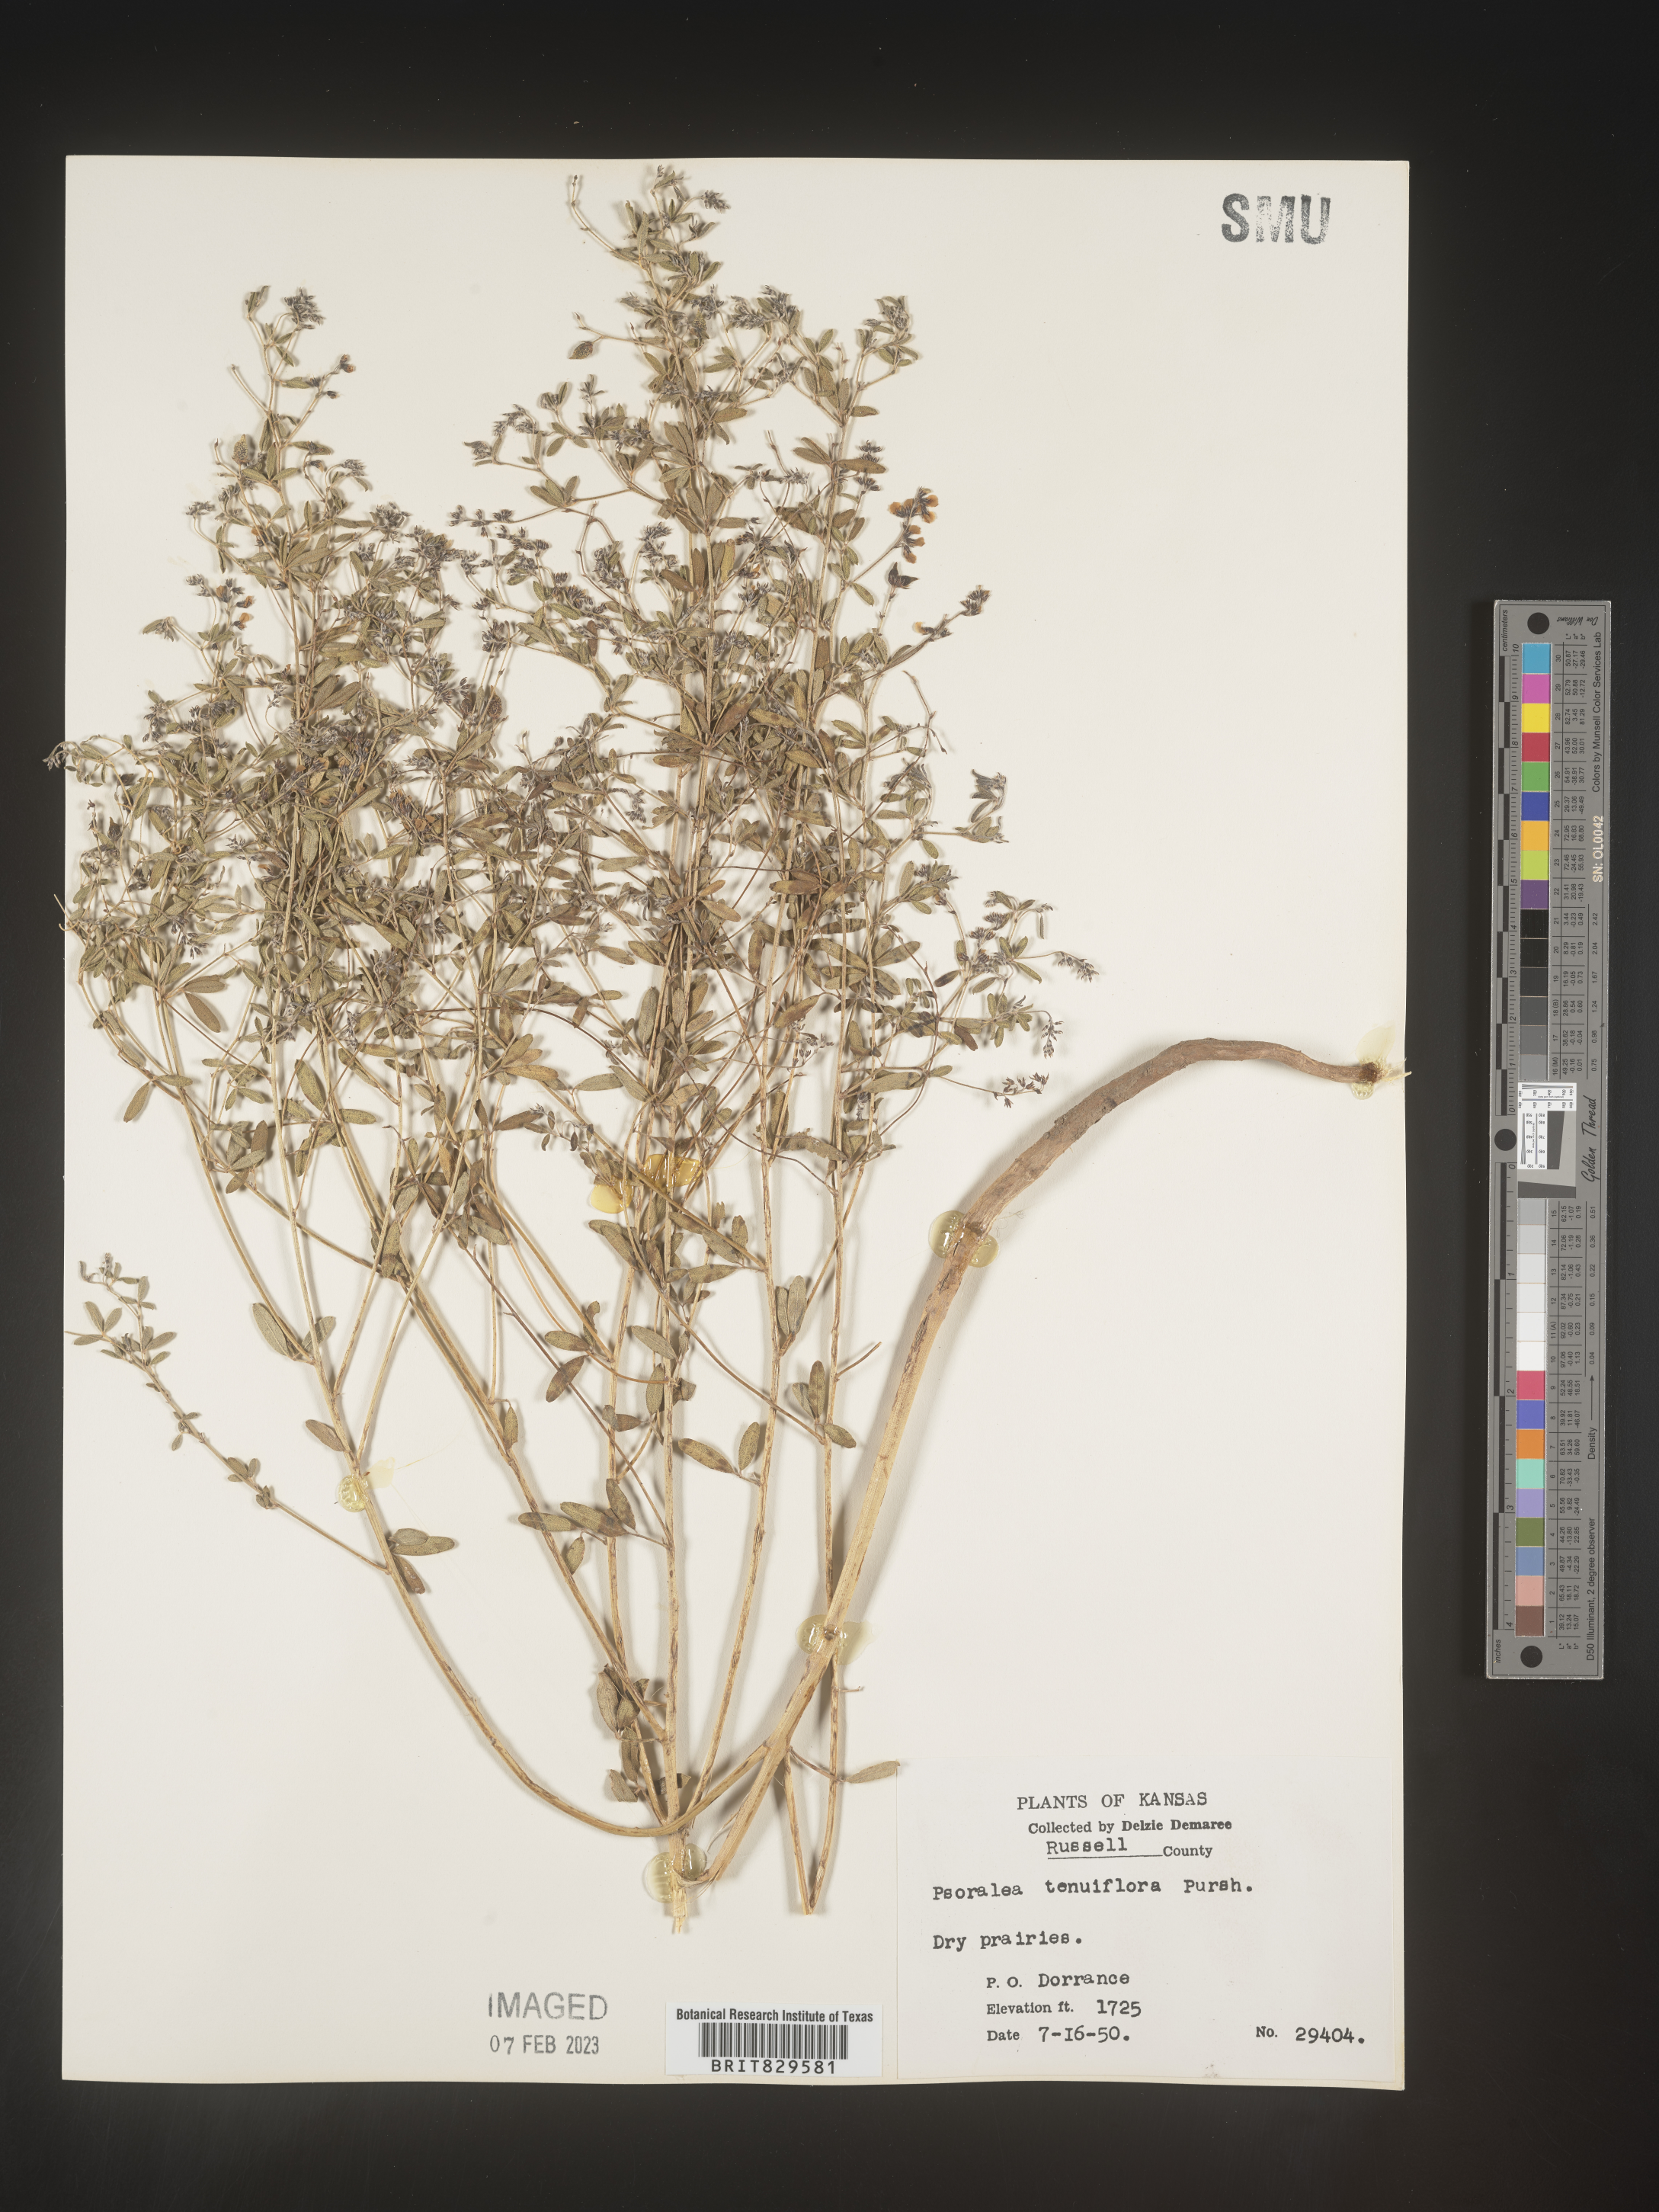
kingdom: Plantae
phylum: Tracheophyta
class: Magnoliopsida
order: Fabales
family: Fabaceae
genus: Pediomelum
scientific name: Pediomelum tenuiflorum
